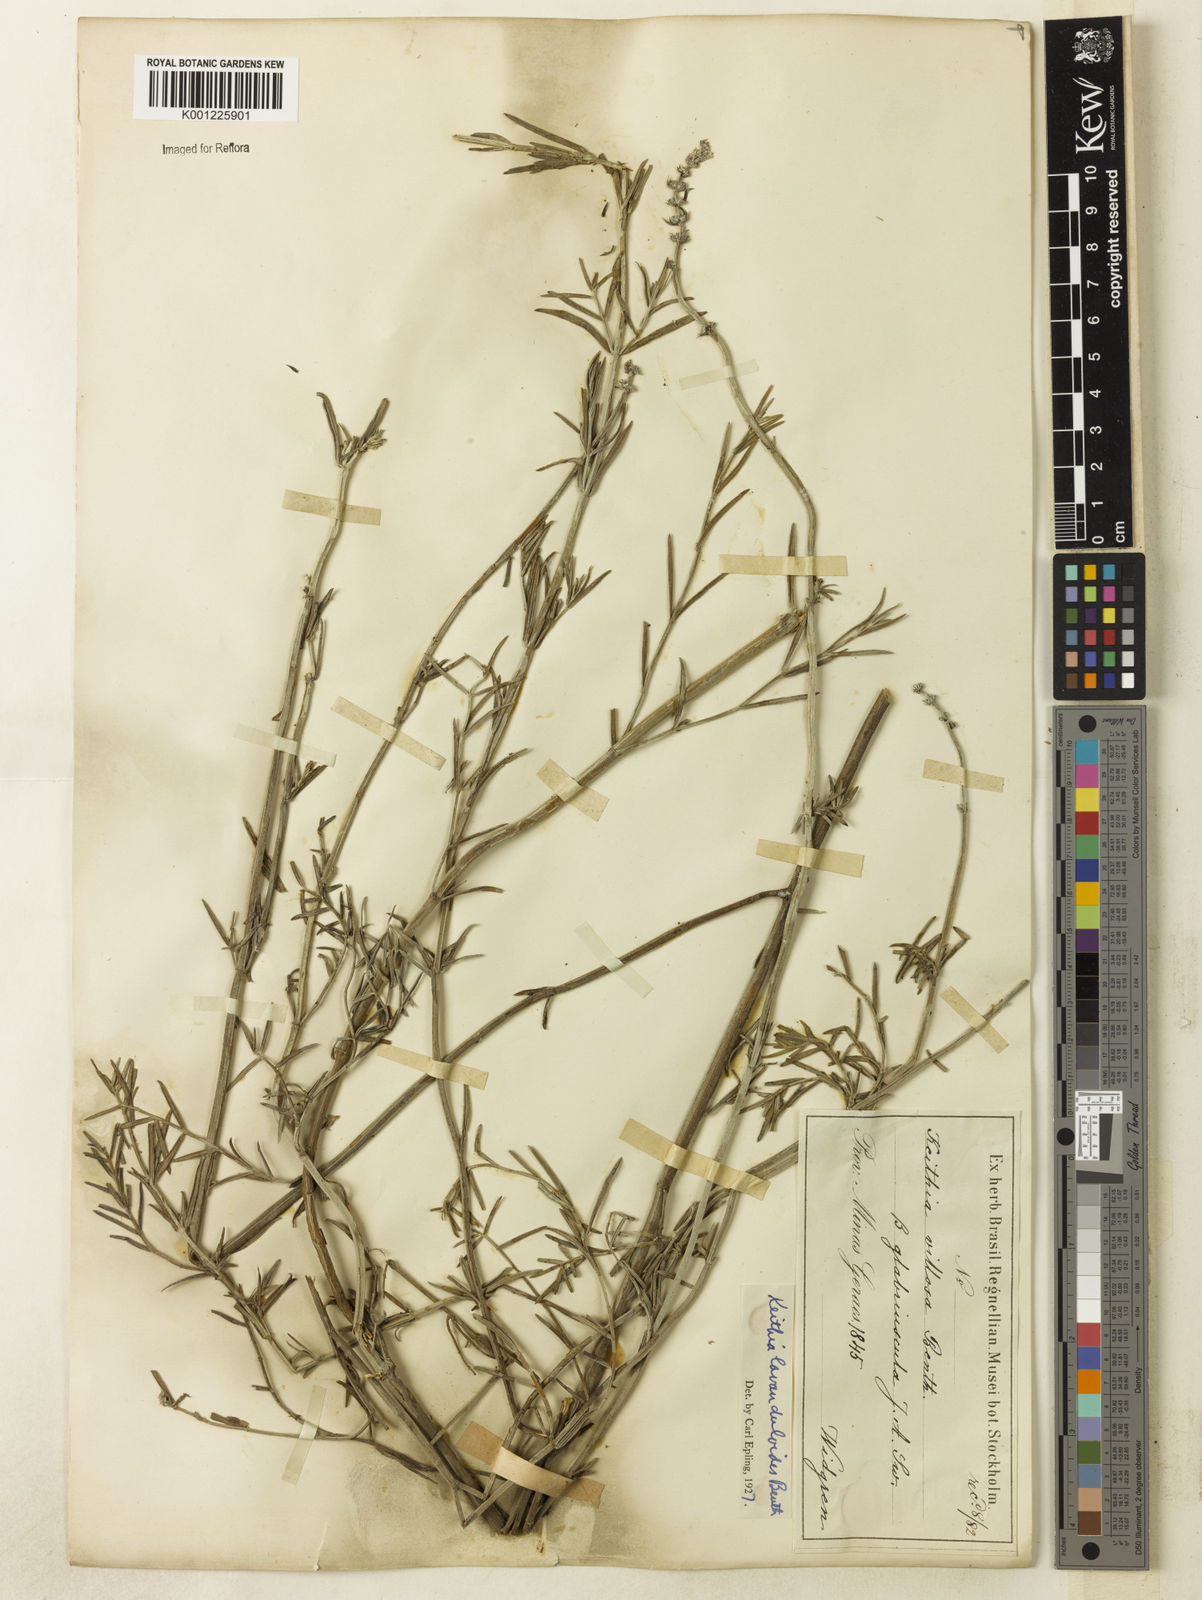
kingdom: Plantae
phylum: Tracheophyta
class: Magnoliopsida
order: Lamiales
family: Lamiaceae
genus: Rhabdocaulon
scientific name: Rhabdocaulon lavanduloides
